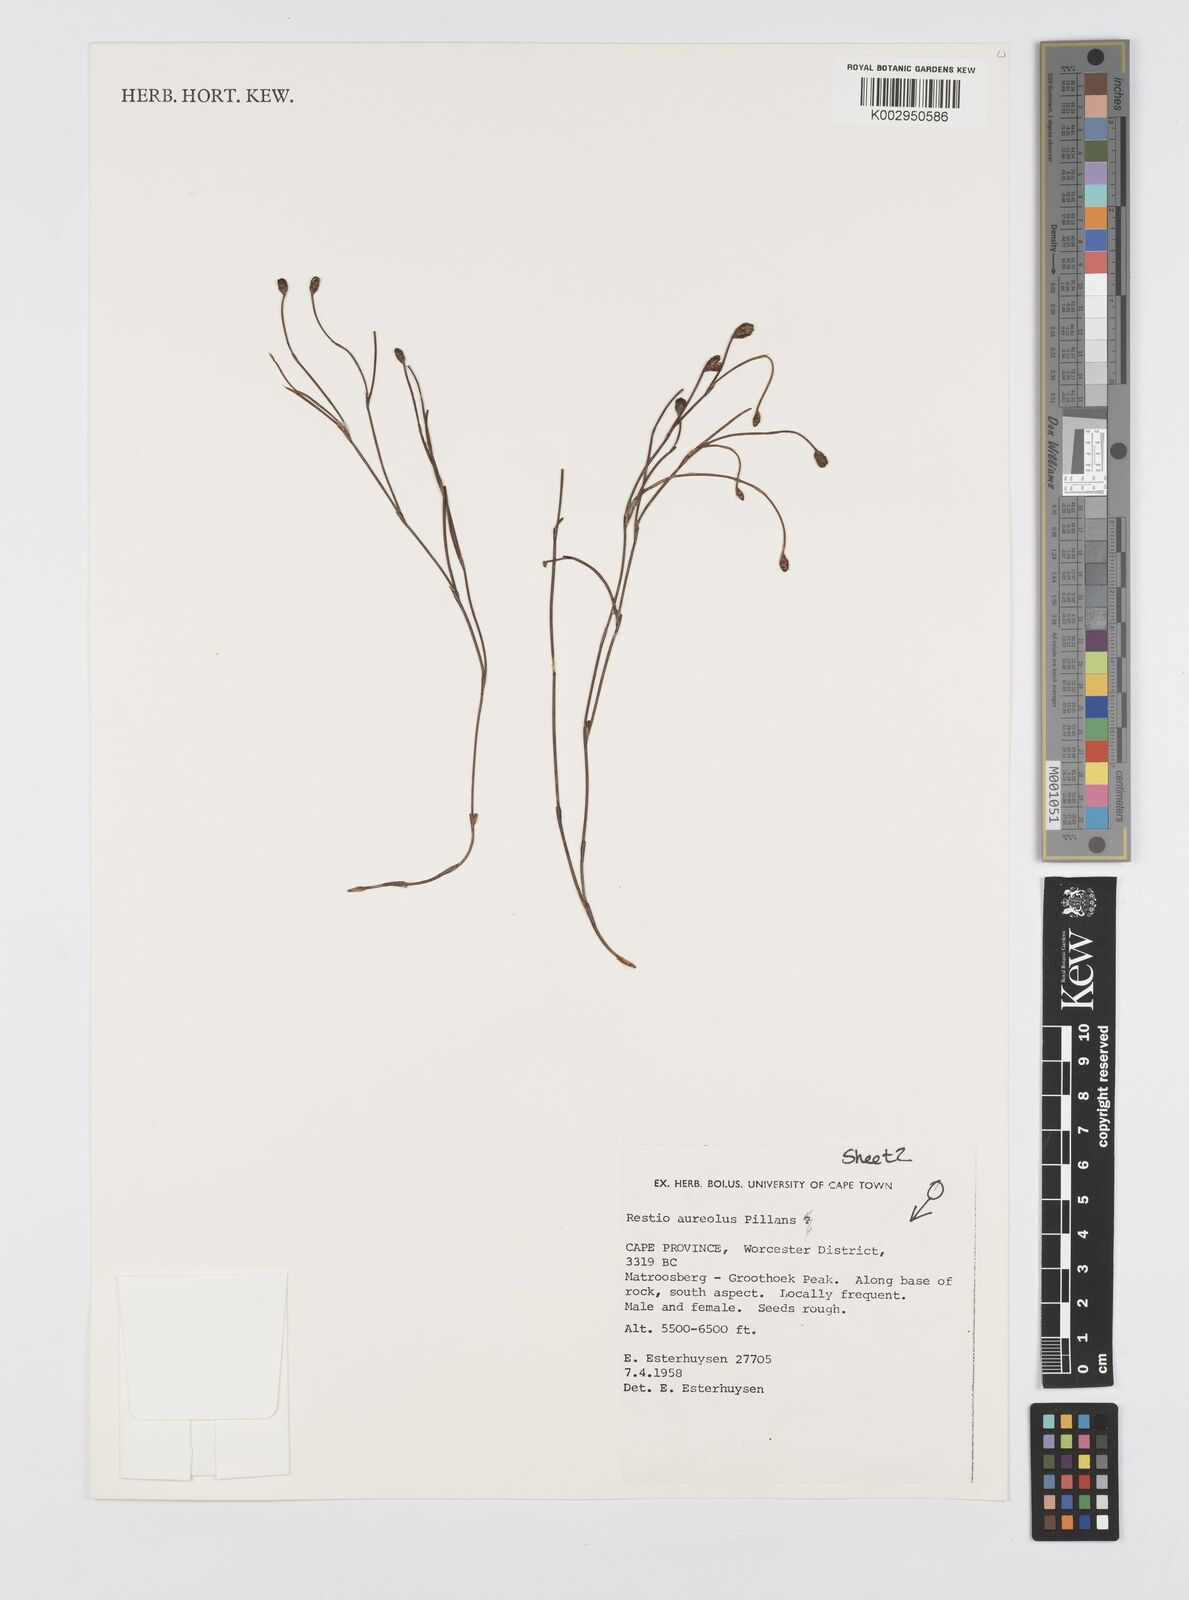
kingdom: Plantae
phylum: Tracheophyta
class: Liliopsida
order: Poales
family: Restionaceae
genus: Restio
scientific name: Restio aureolus
